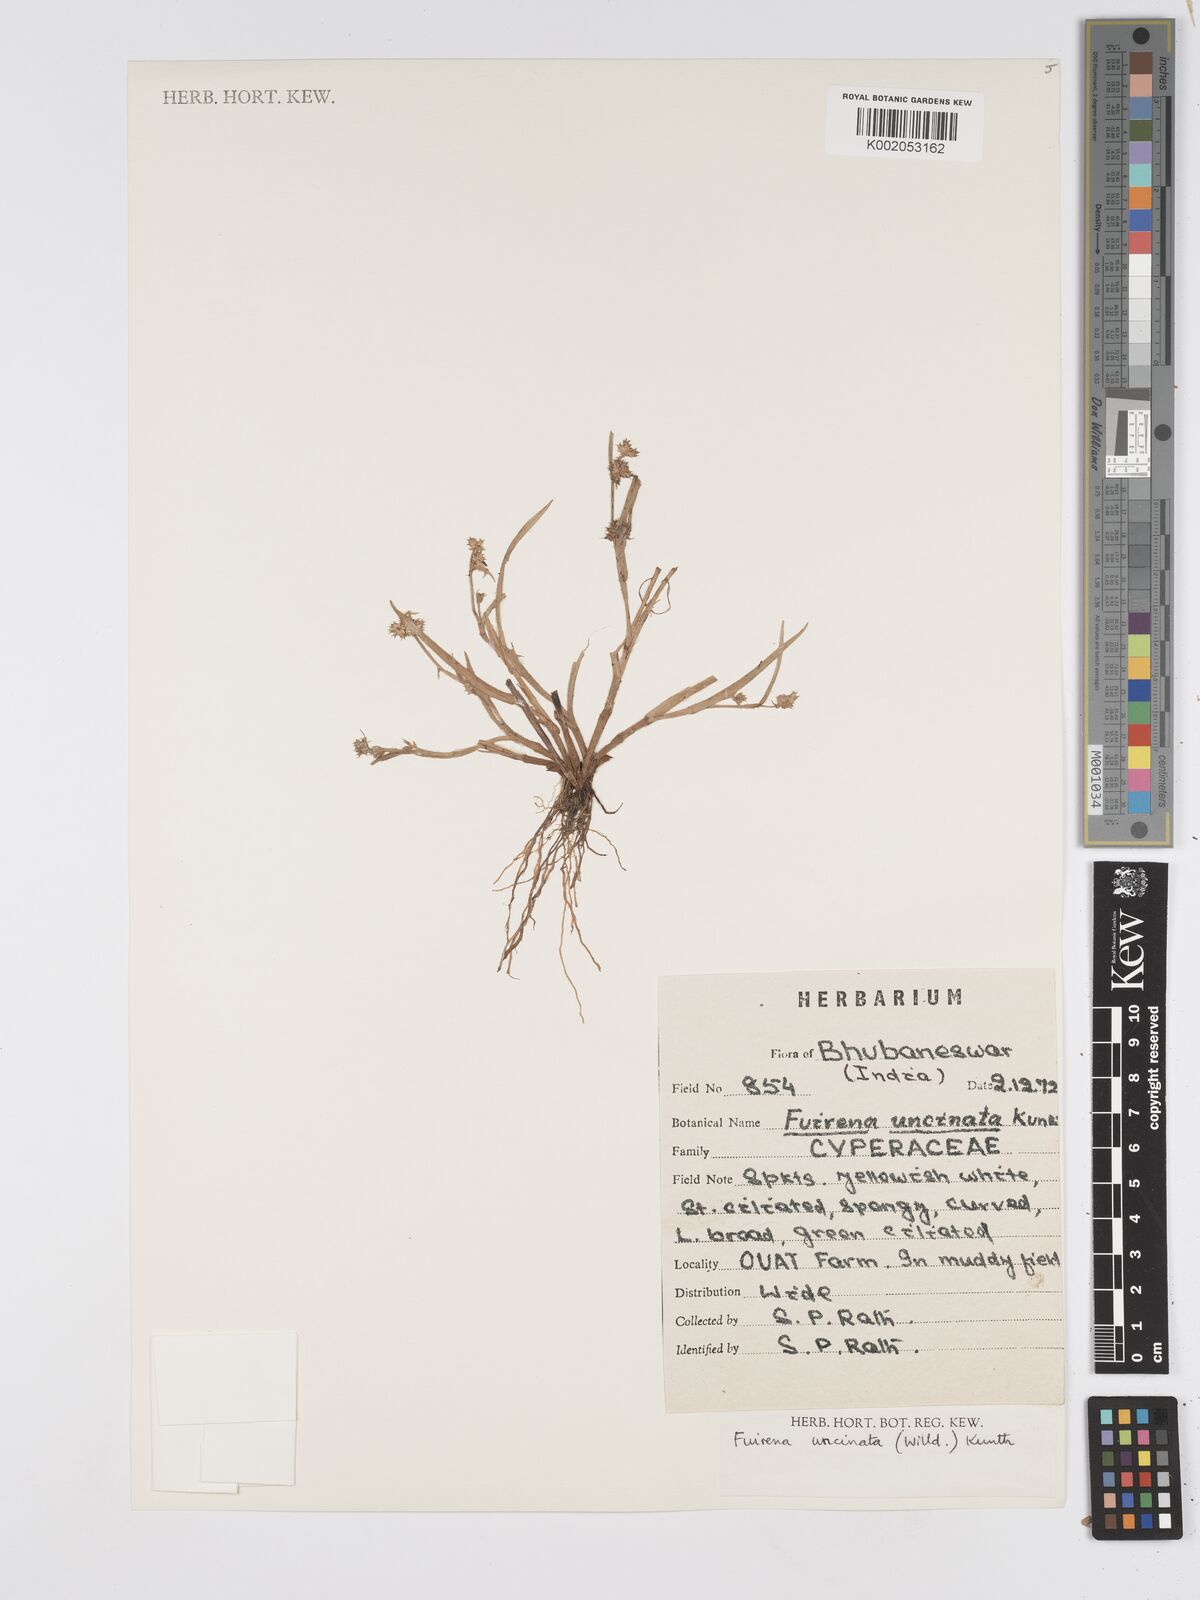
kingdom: Plantae
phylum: Tracheophyta
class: Liliopsida
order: Poales
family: Cyperaceae
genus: Fuirena
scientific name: Fuirena uncinata
